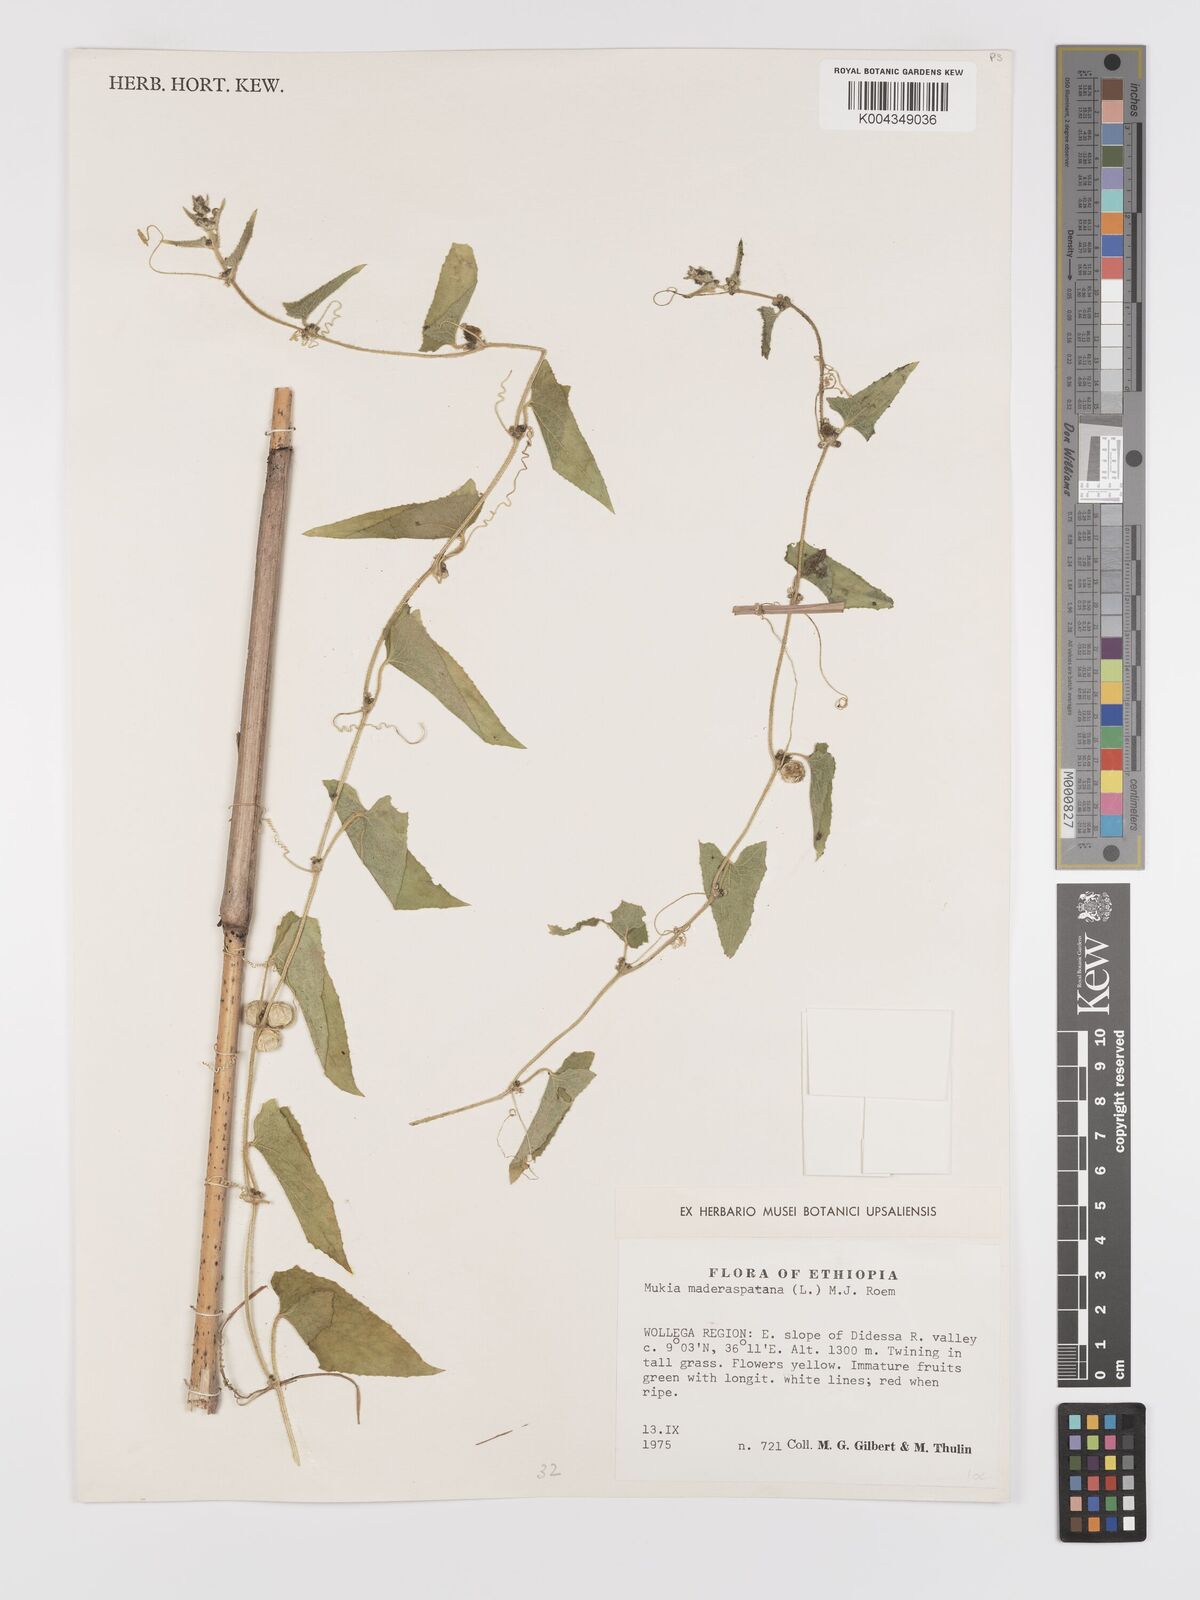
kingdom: Plantae
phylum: Tracheophyta
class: Magnoliopsida
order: Cucurbitales
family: Cucurbitaceae
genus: Cucumis
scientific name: Cucumis maderaspatanus
